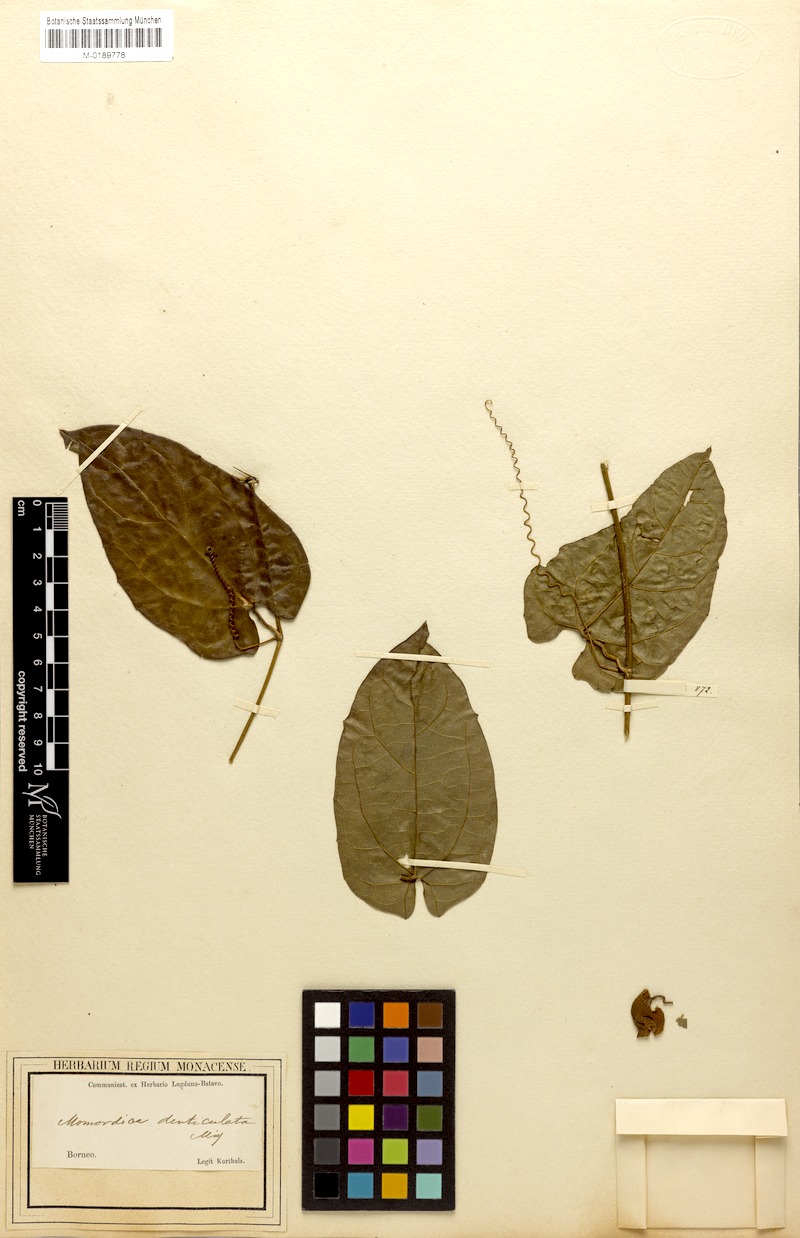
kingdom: Plantae
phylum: Tracheophyta
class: Magnoliopsida
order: Cucurbitales
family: Cucurbitaceae
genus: Momordica
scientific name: Momordica denticulata
